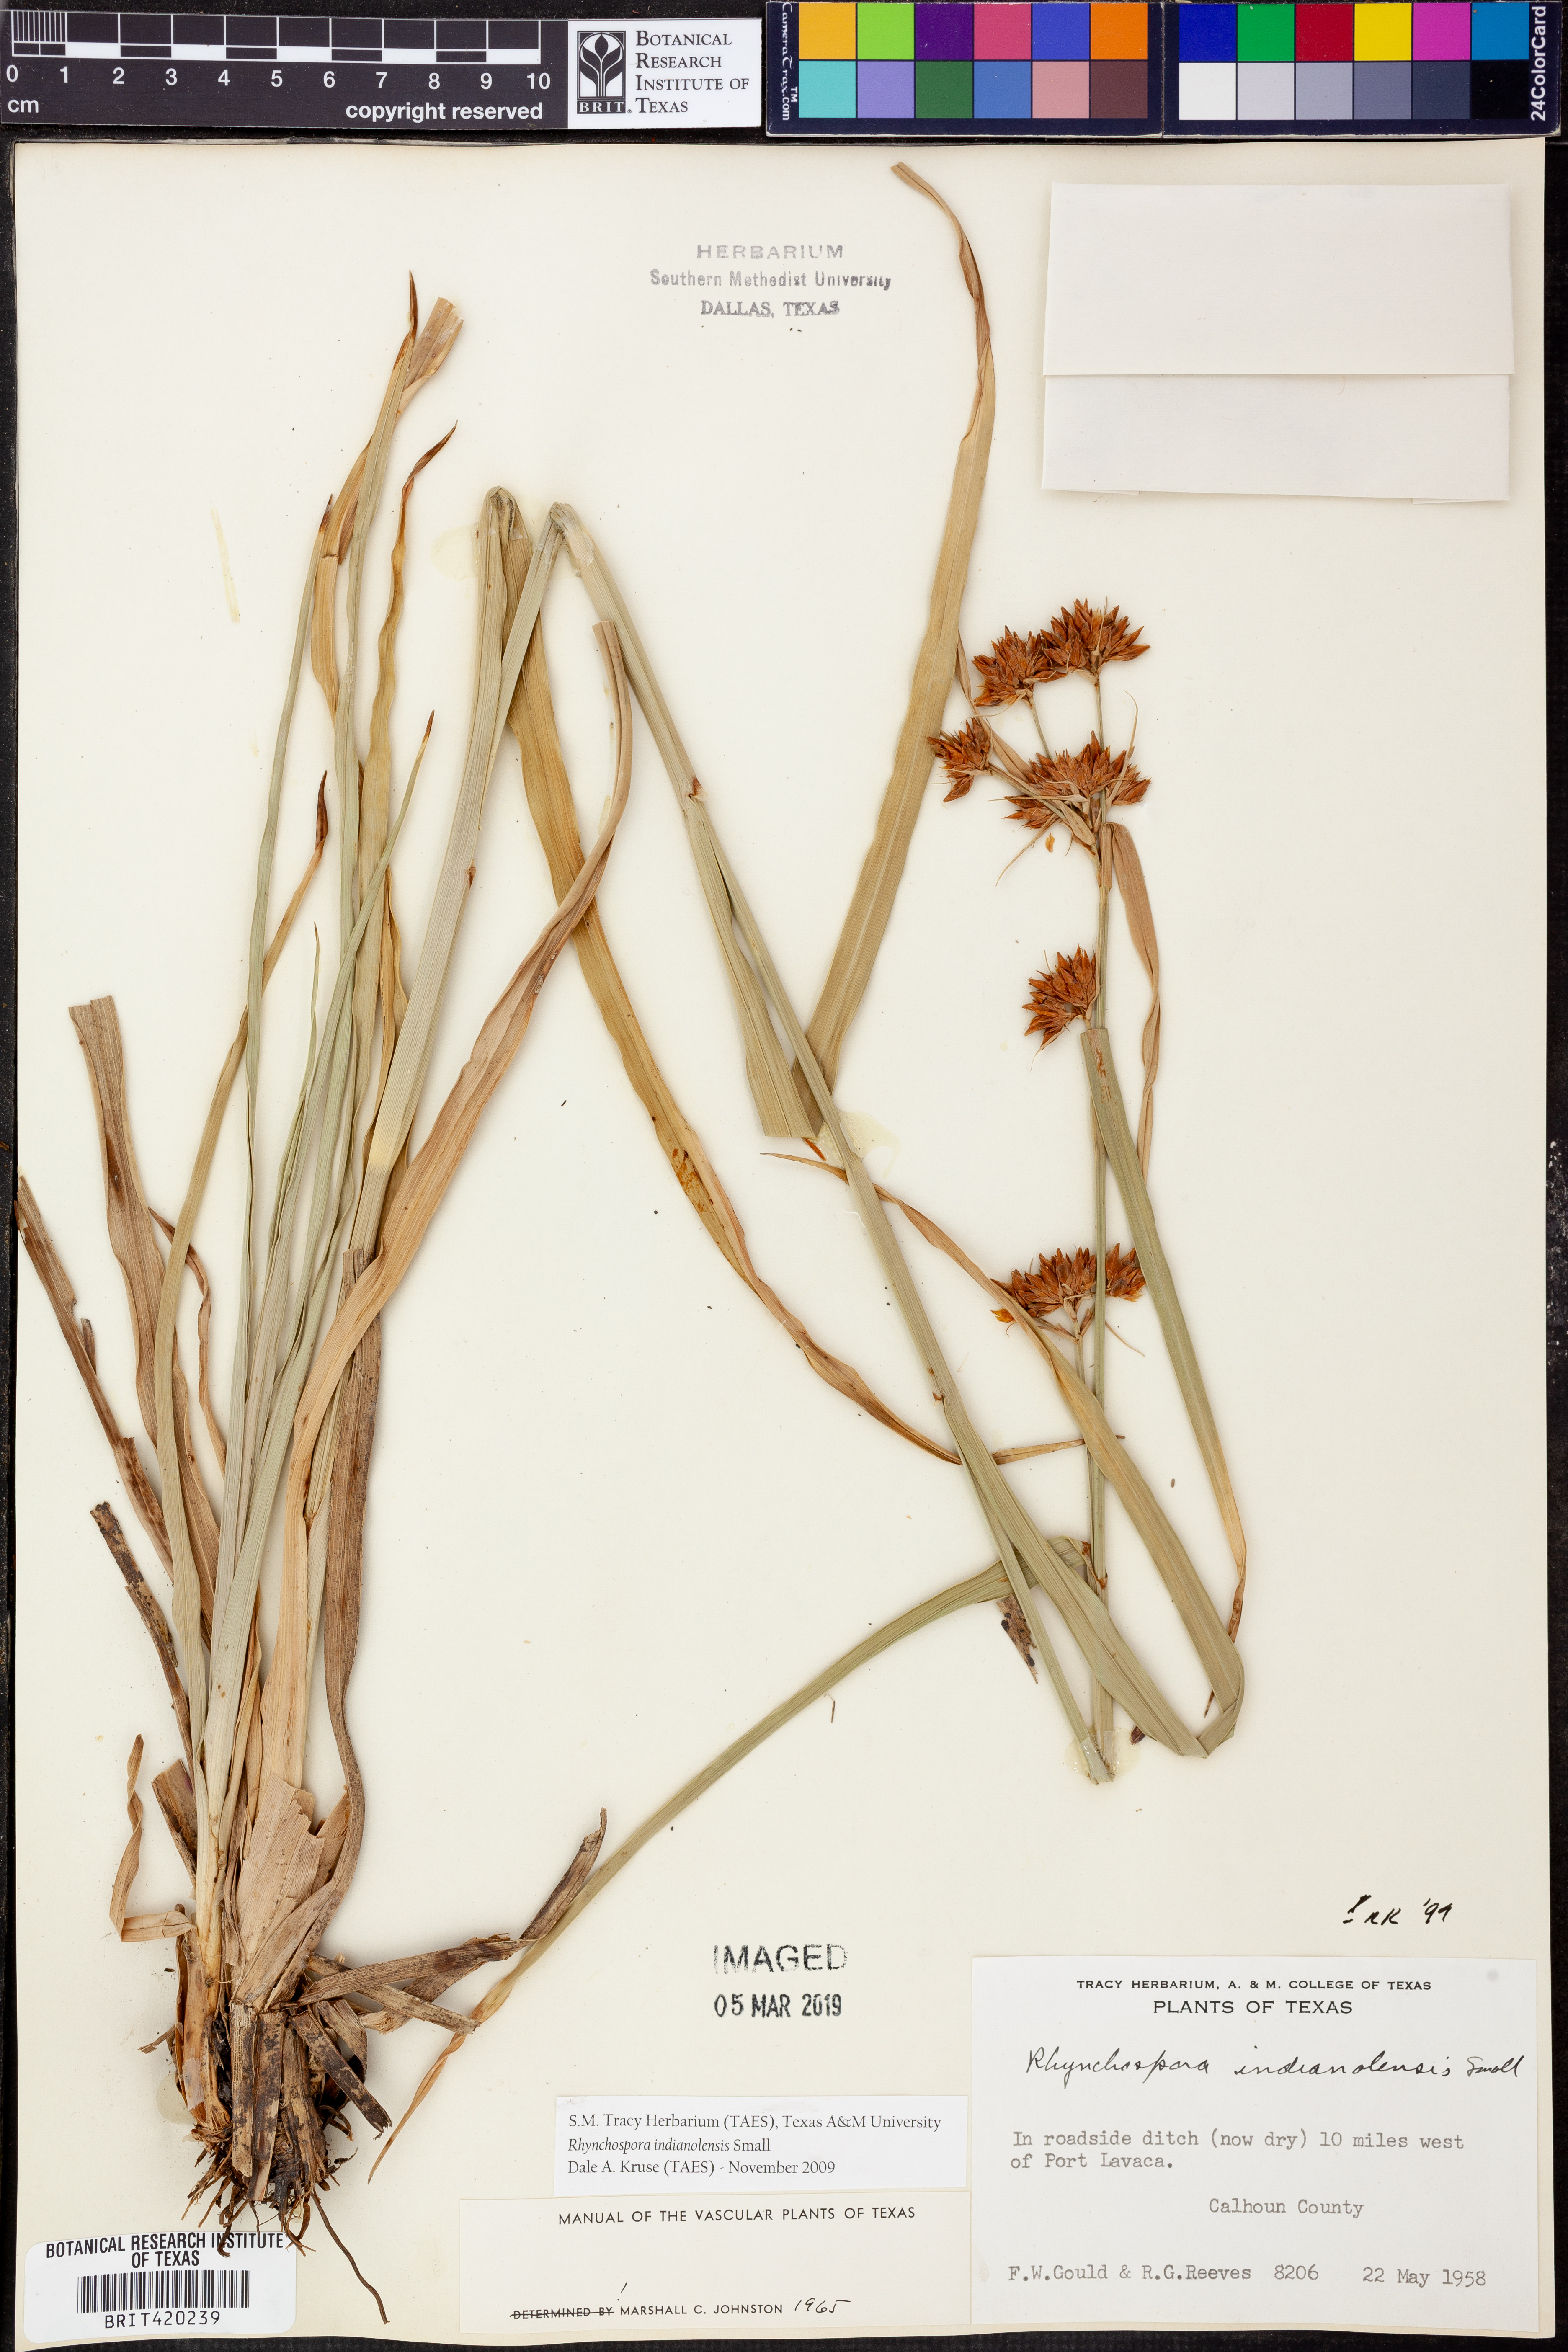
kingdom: Plantae
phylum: Tracheophyta
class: Liliopsida
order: Poales
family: Cyperaceae
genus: Rhynchospora
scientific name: Rhynchospora scutellata
